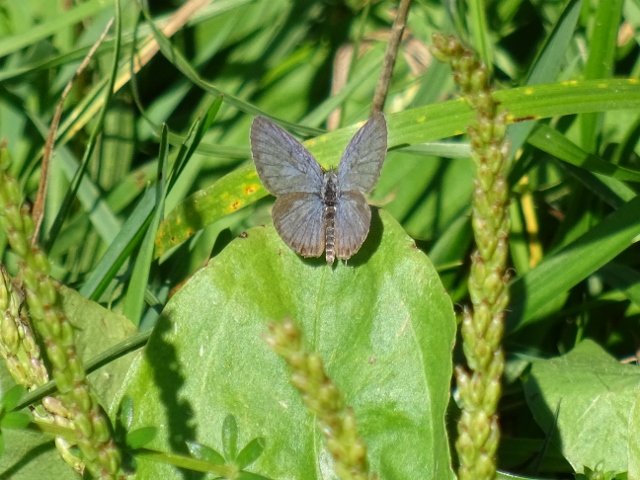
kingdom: Animalia
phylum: Arthropoda
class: Insecta
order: Lepidoptera
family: Lycaenidae
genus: Elkalyce
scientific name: Elkalyce comyntas
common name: Eastern Tailed-Blue
